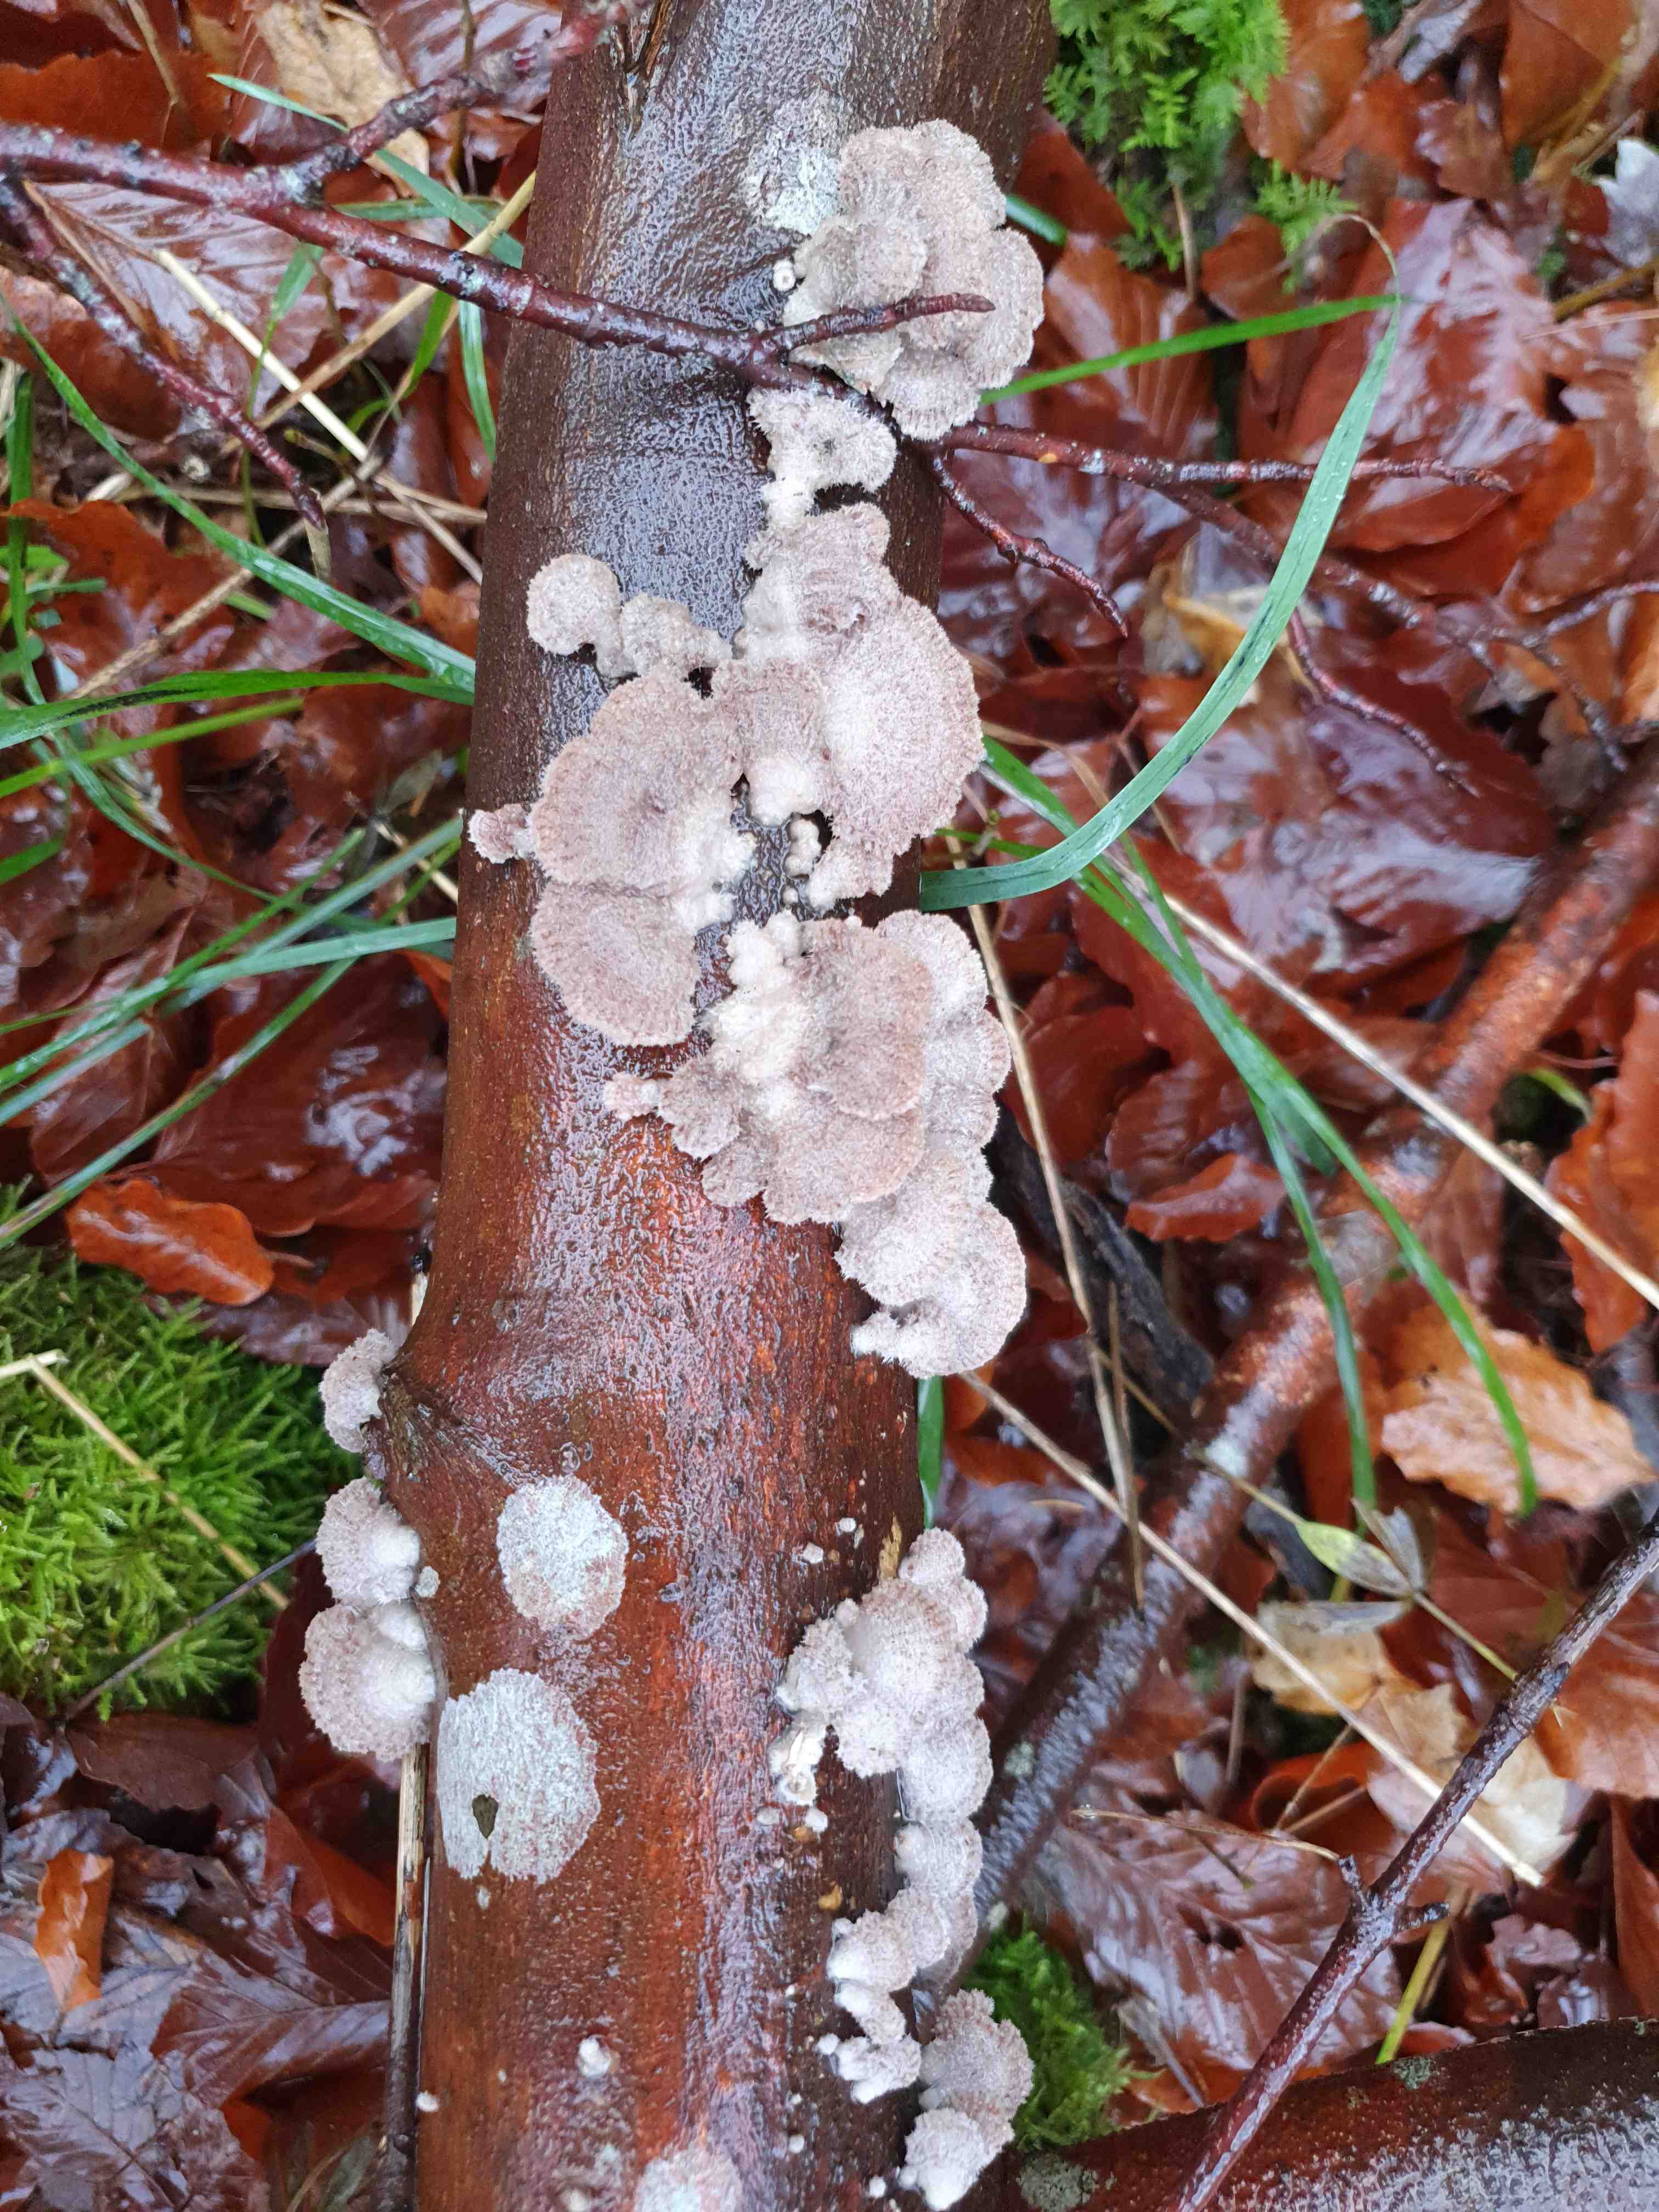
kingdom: Fungi
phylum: Basidiomycota
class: Agaricomycetes
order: Agaricales
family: Schizophyllaceae
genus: Schizophyllum
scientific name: Schizophyllum commune
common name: kløvblad
